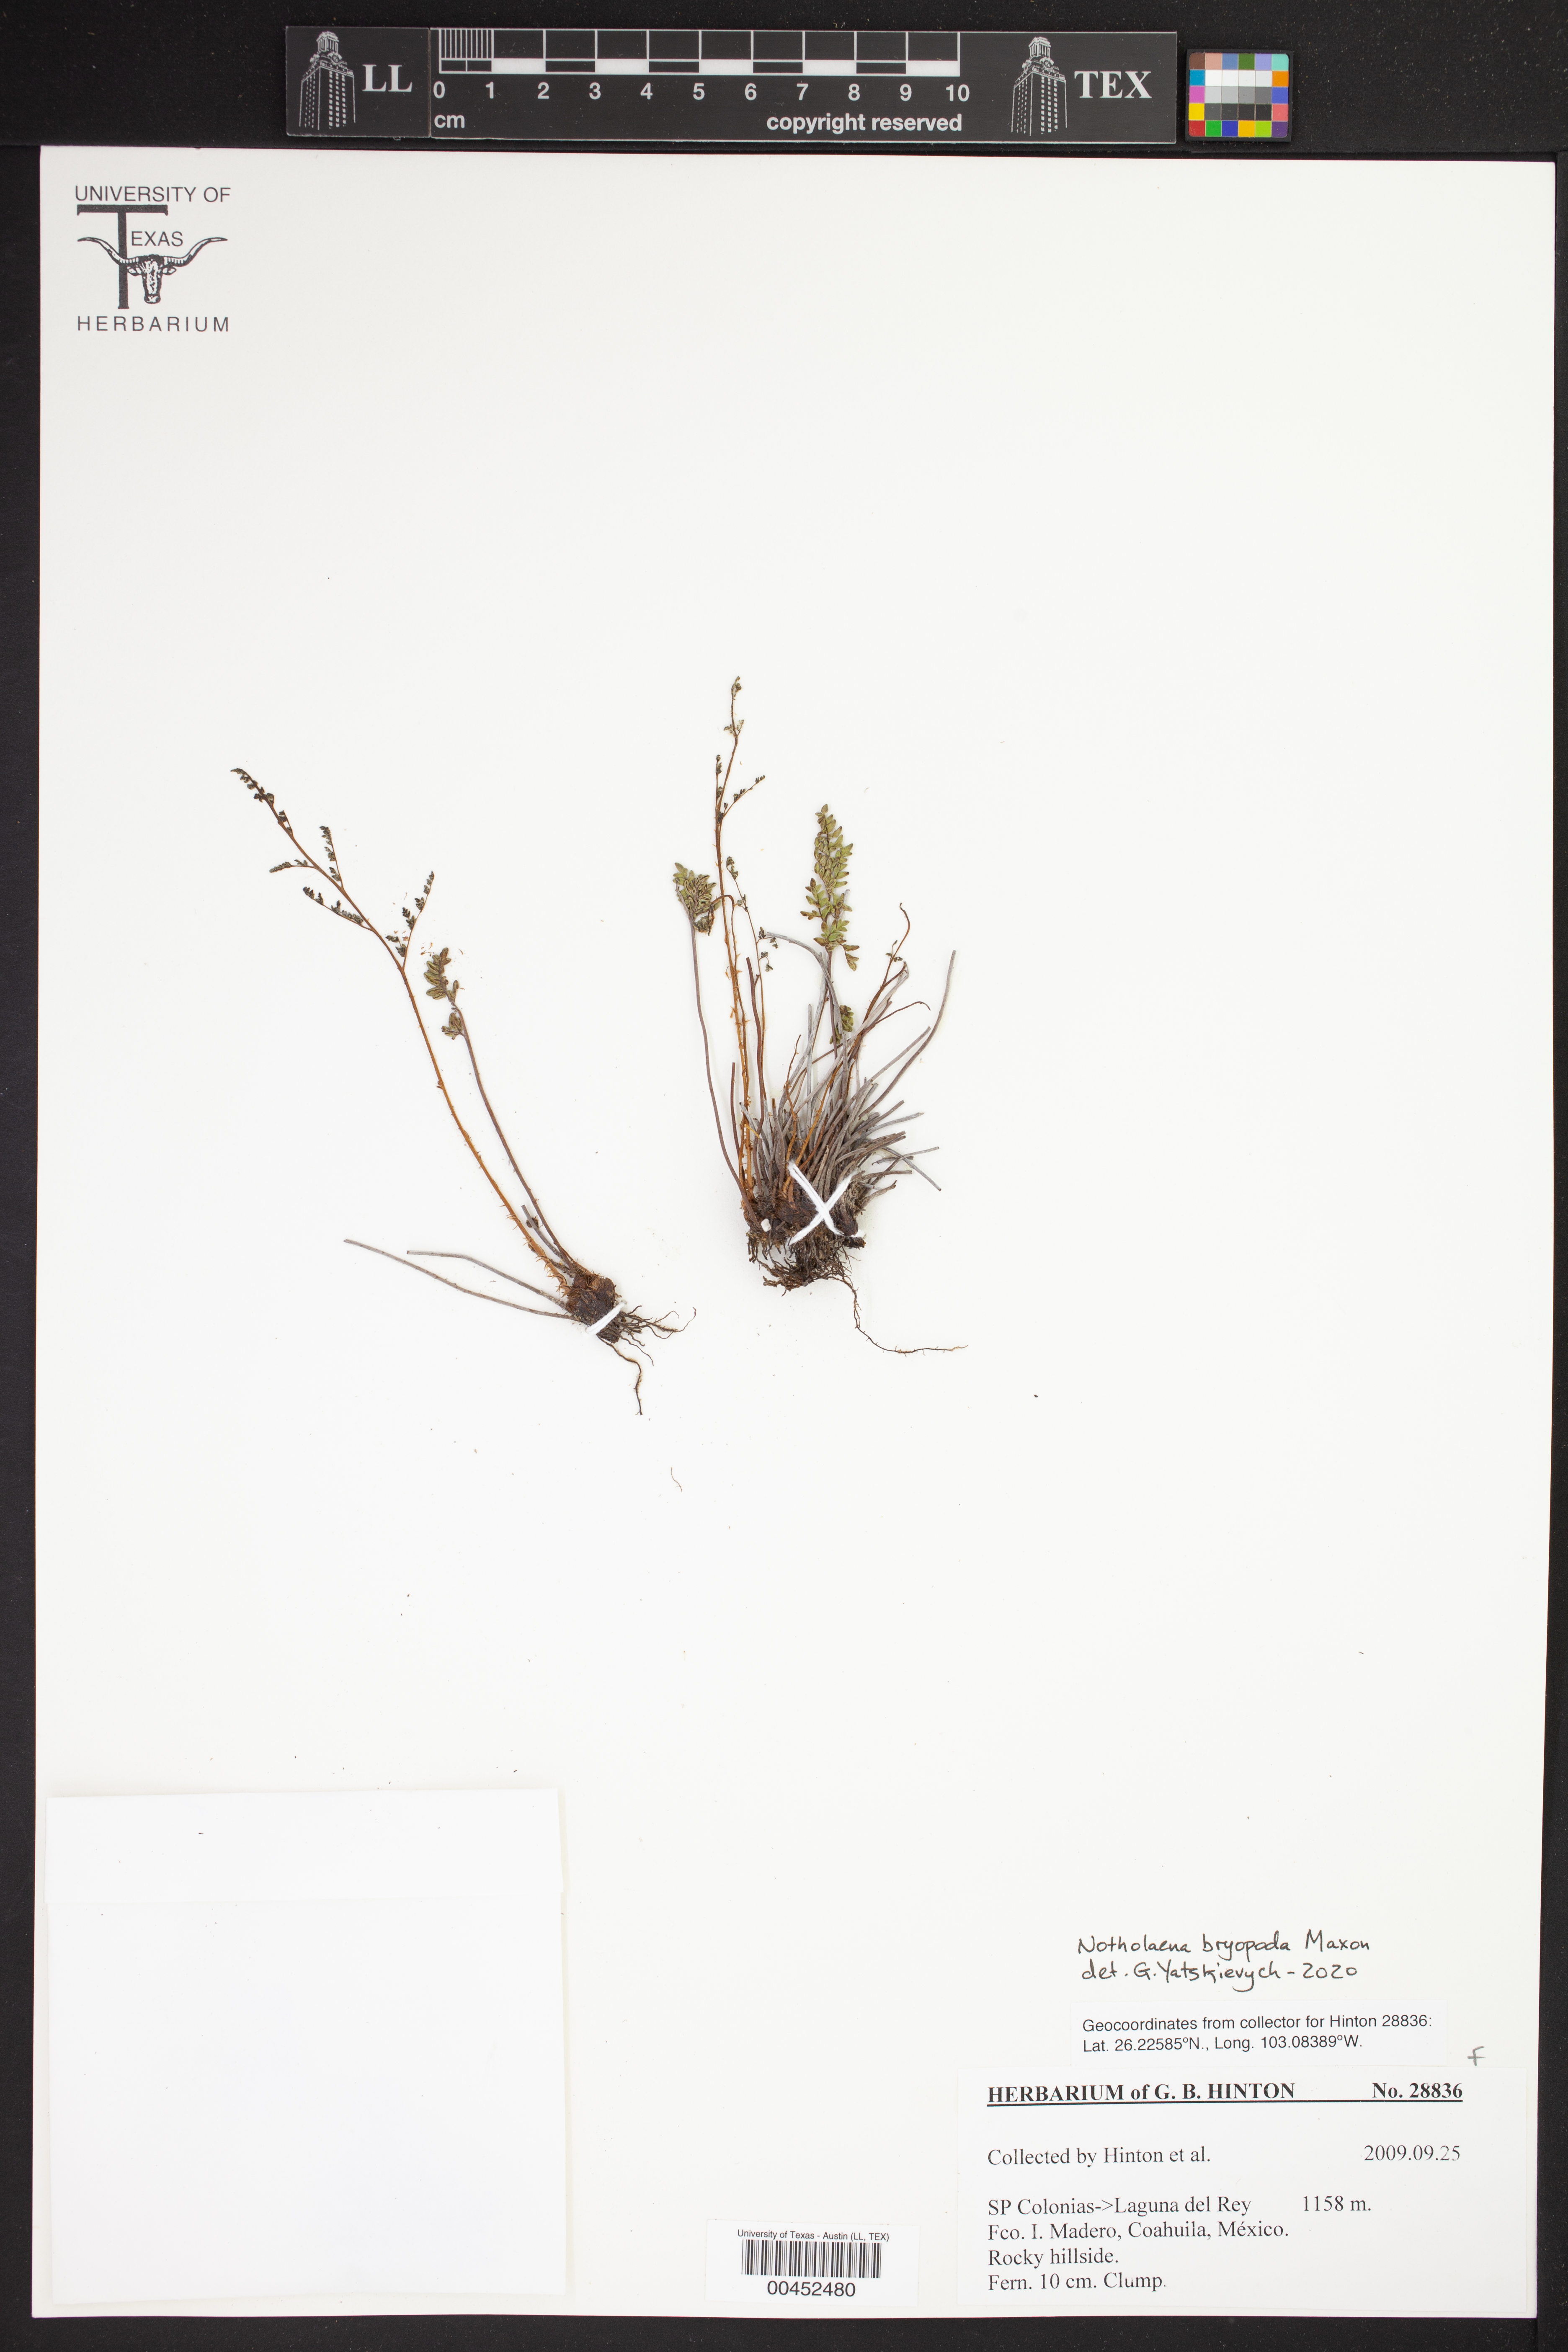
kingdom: Plantae
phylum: Tracheophyta
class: Polypodiopsida
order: Polypodiales
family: Pteridaceae
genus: Notholaena
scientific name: Notholaena bryopoda
